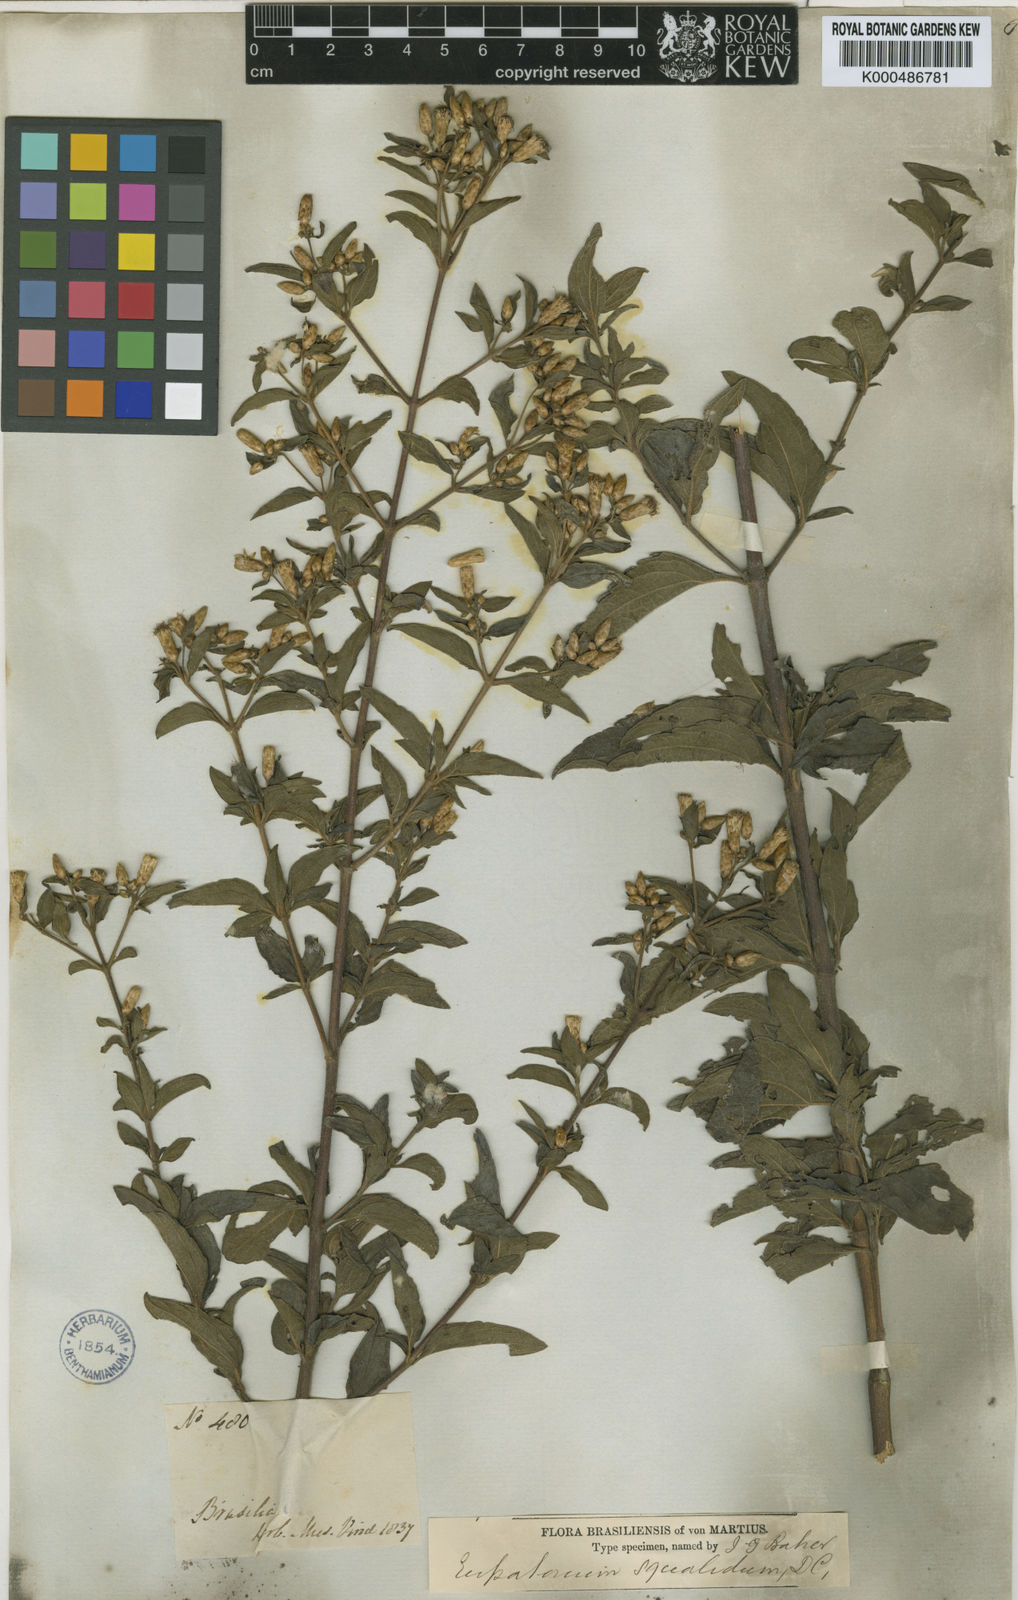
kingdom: Plantae
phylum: Tracheophyta
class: Magnoliopsida
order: Asterales
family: Asteraceae
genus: Chromolaena
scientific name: Chromolaena squalida
